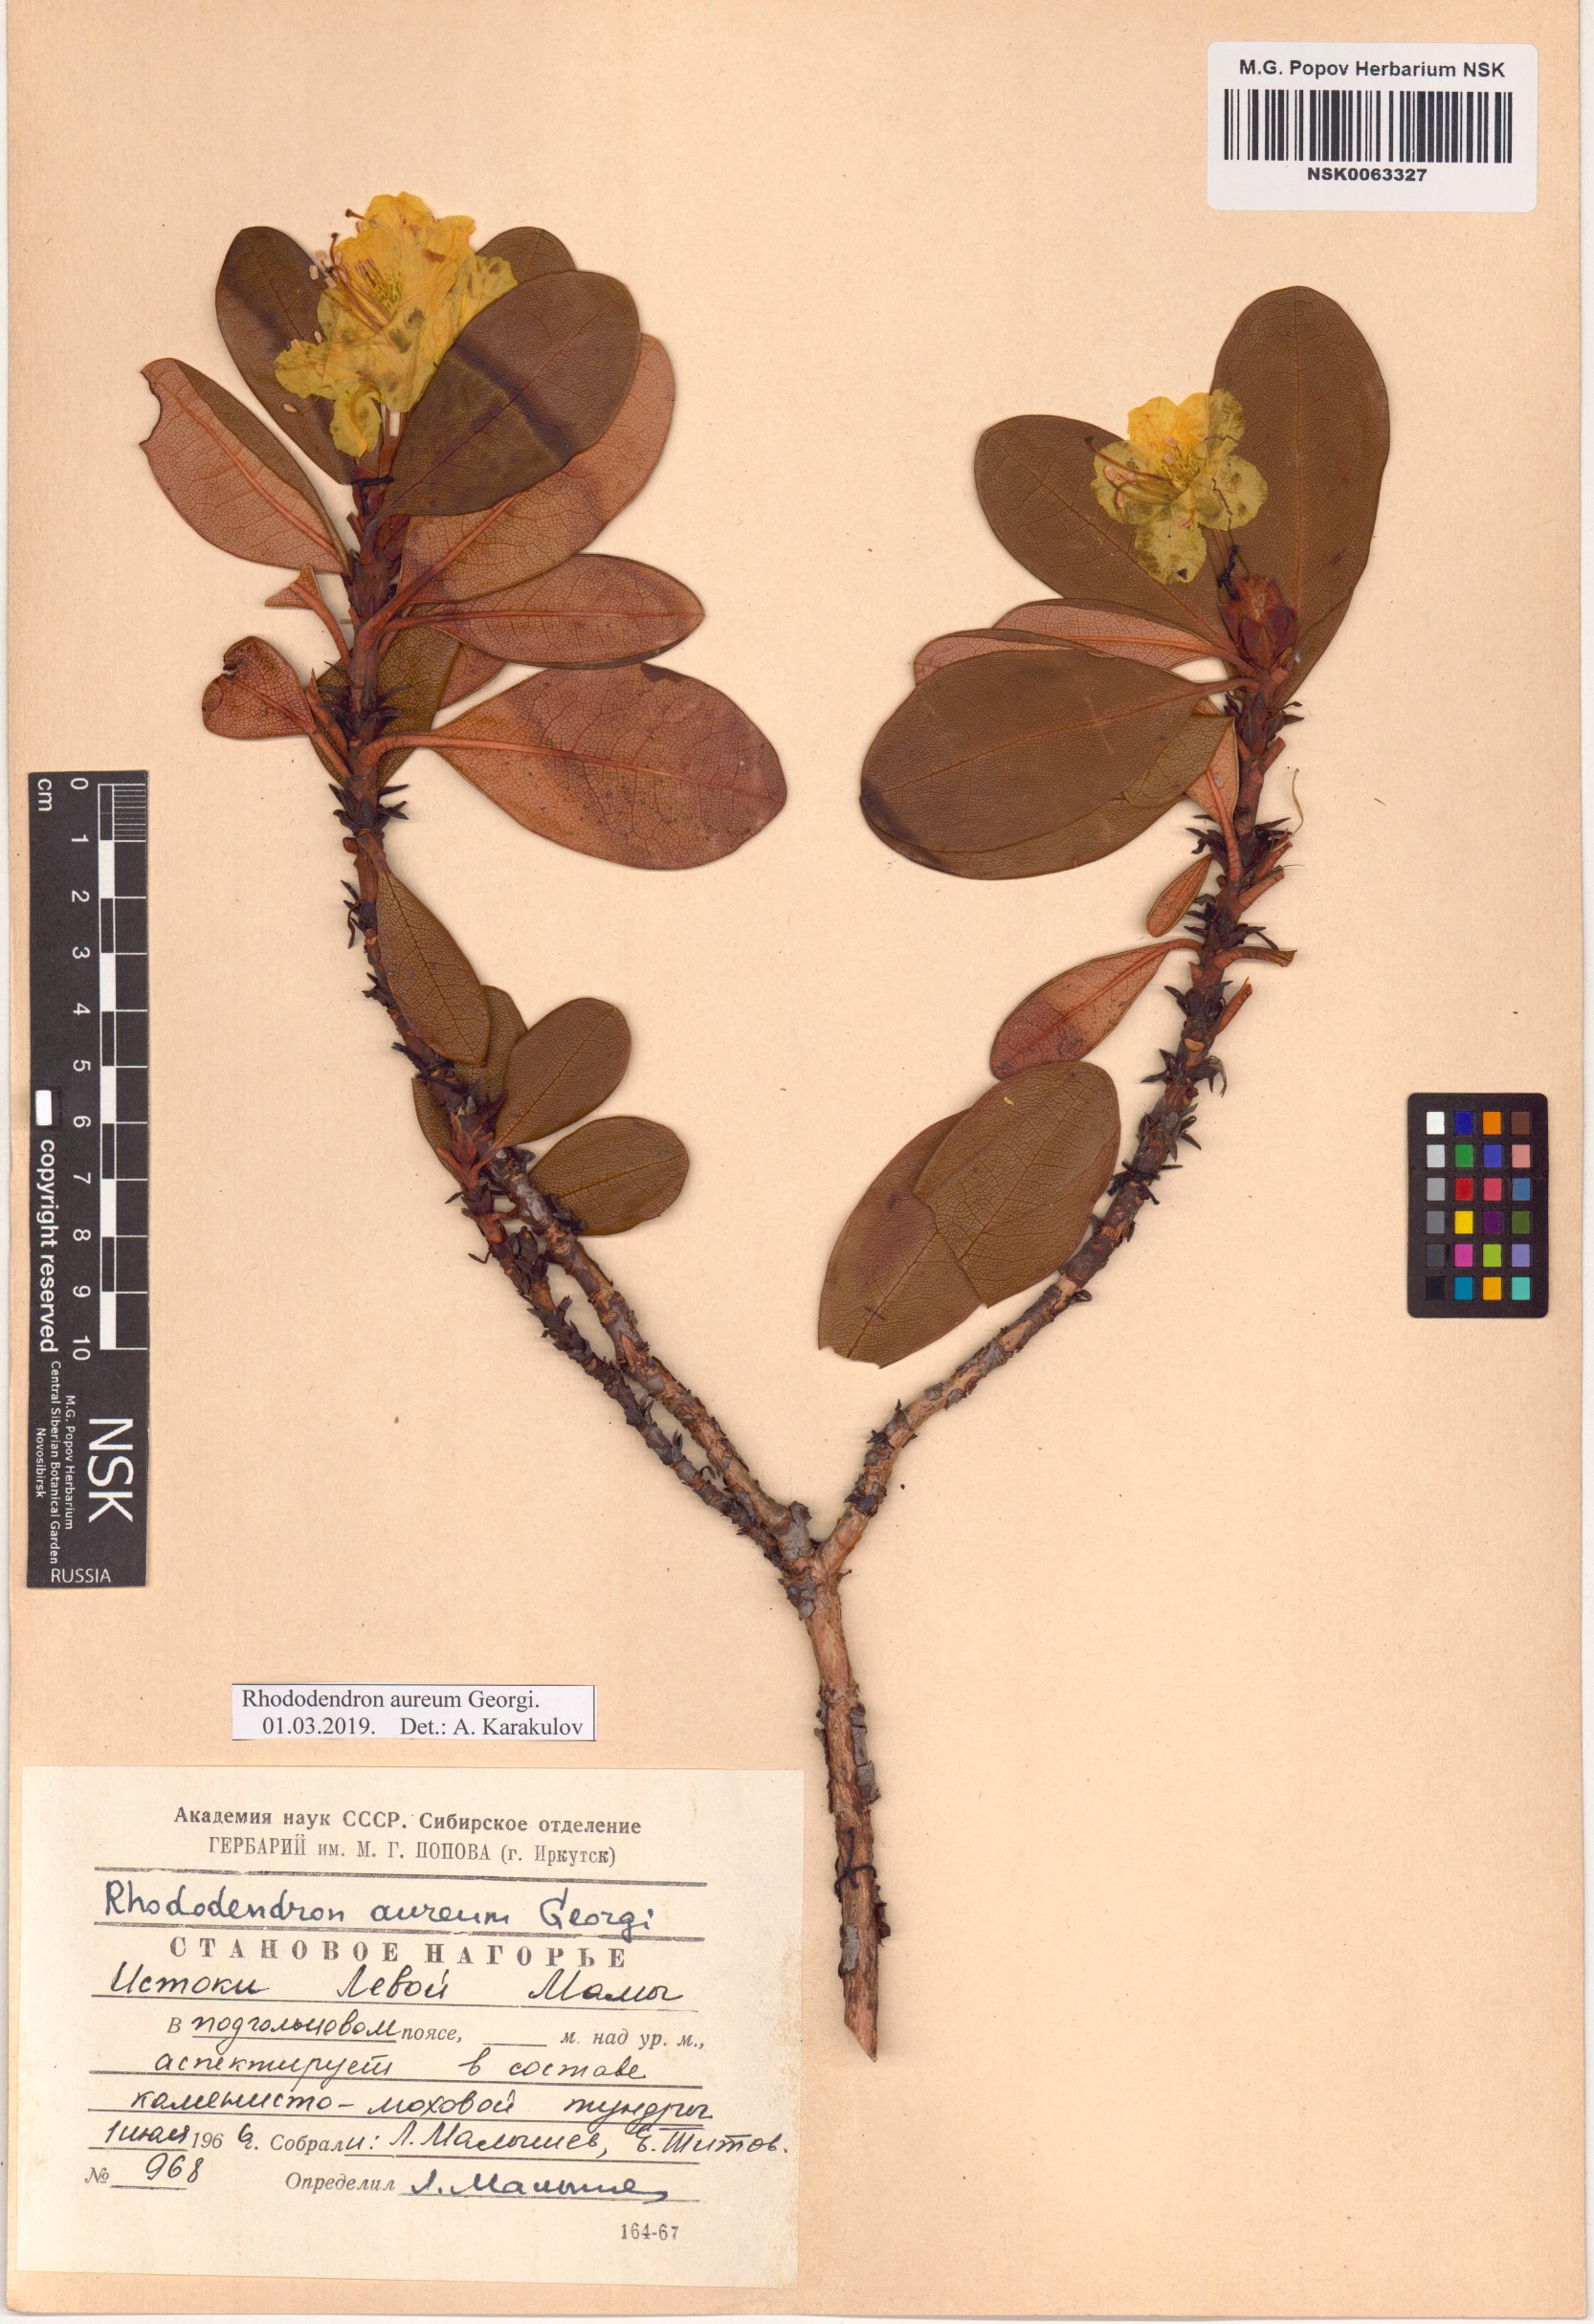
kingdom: Plantae
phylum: Tracheophyta
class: Magnoliopsida
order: Ericales
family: Ericaceae
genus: Rhododendron
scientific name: Rhododendron aureum
